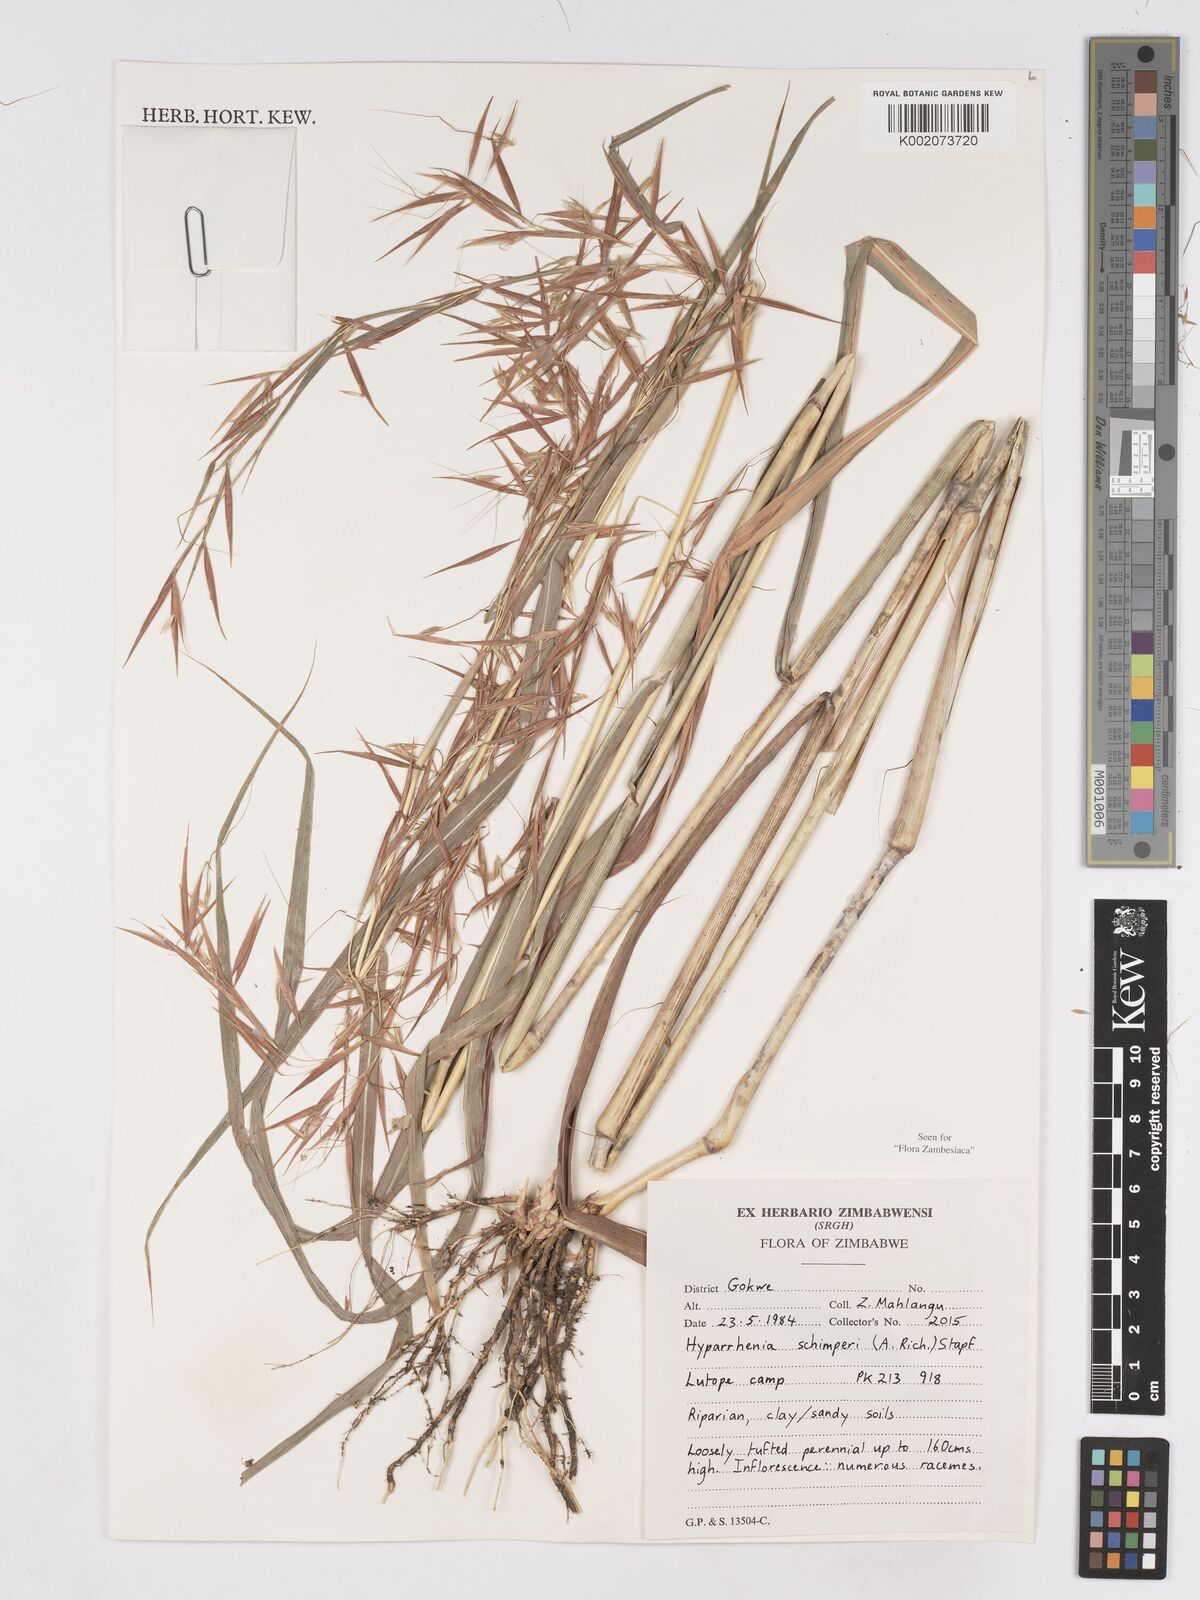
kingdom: Plantae
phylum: Tracheophyta
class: Liliopsida
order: Poales
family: Poaceae
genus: Hyparrhenia
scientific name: Hyparrhenia schimperi
